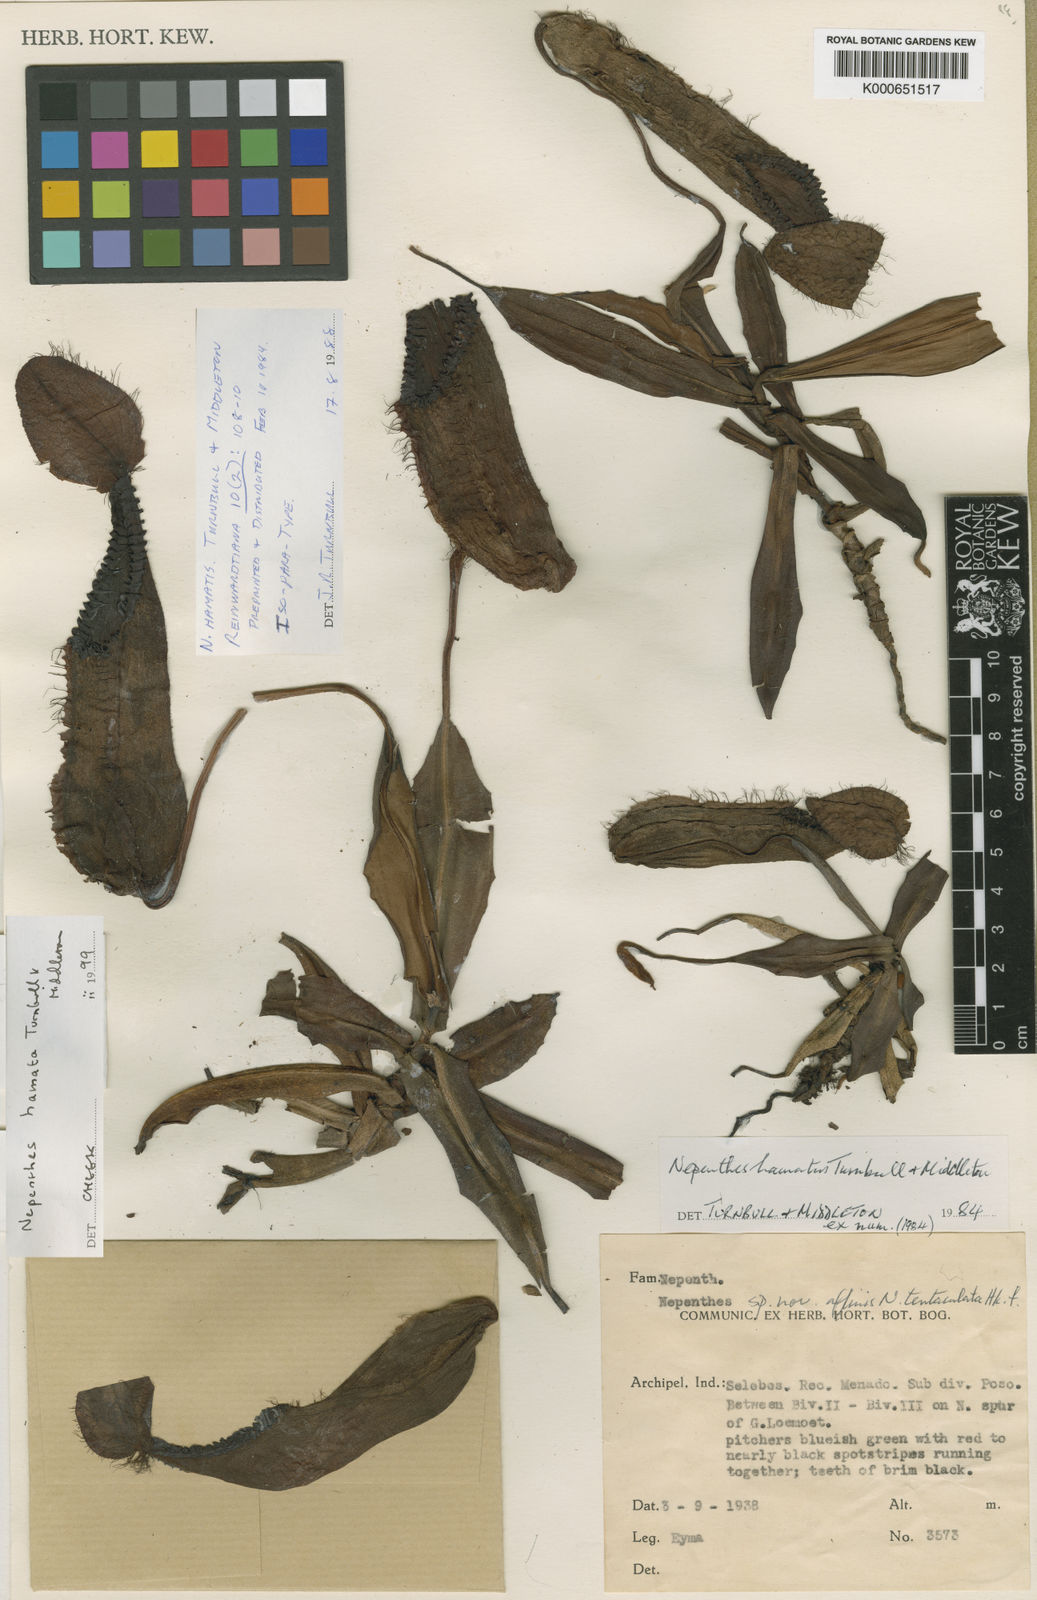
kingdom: Plantae
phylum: Tracheophyta
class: Magnoliopsida
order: Caryophyllales
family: Nepenthaceae
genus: Nepenthes
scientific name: Nepenthes hamata
